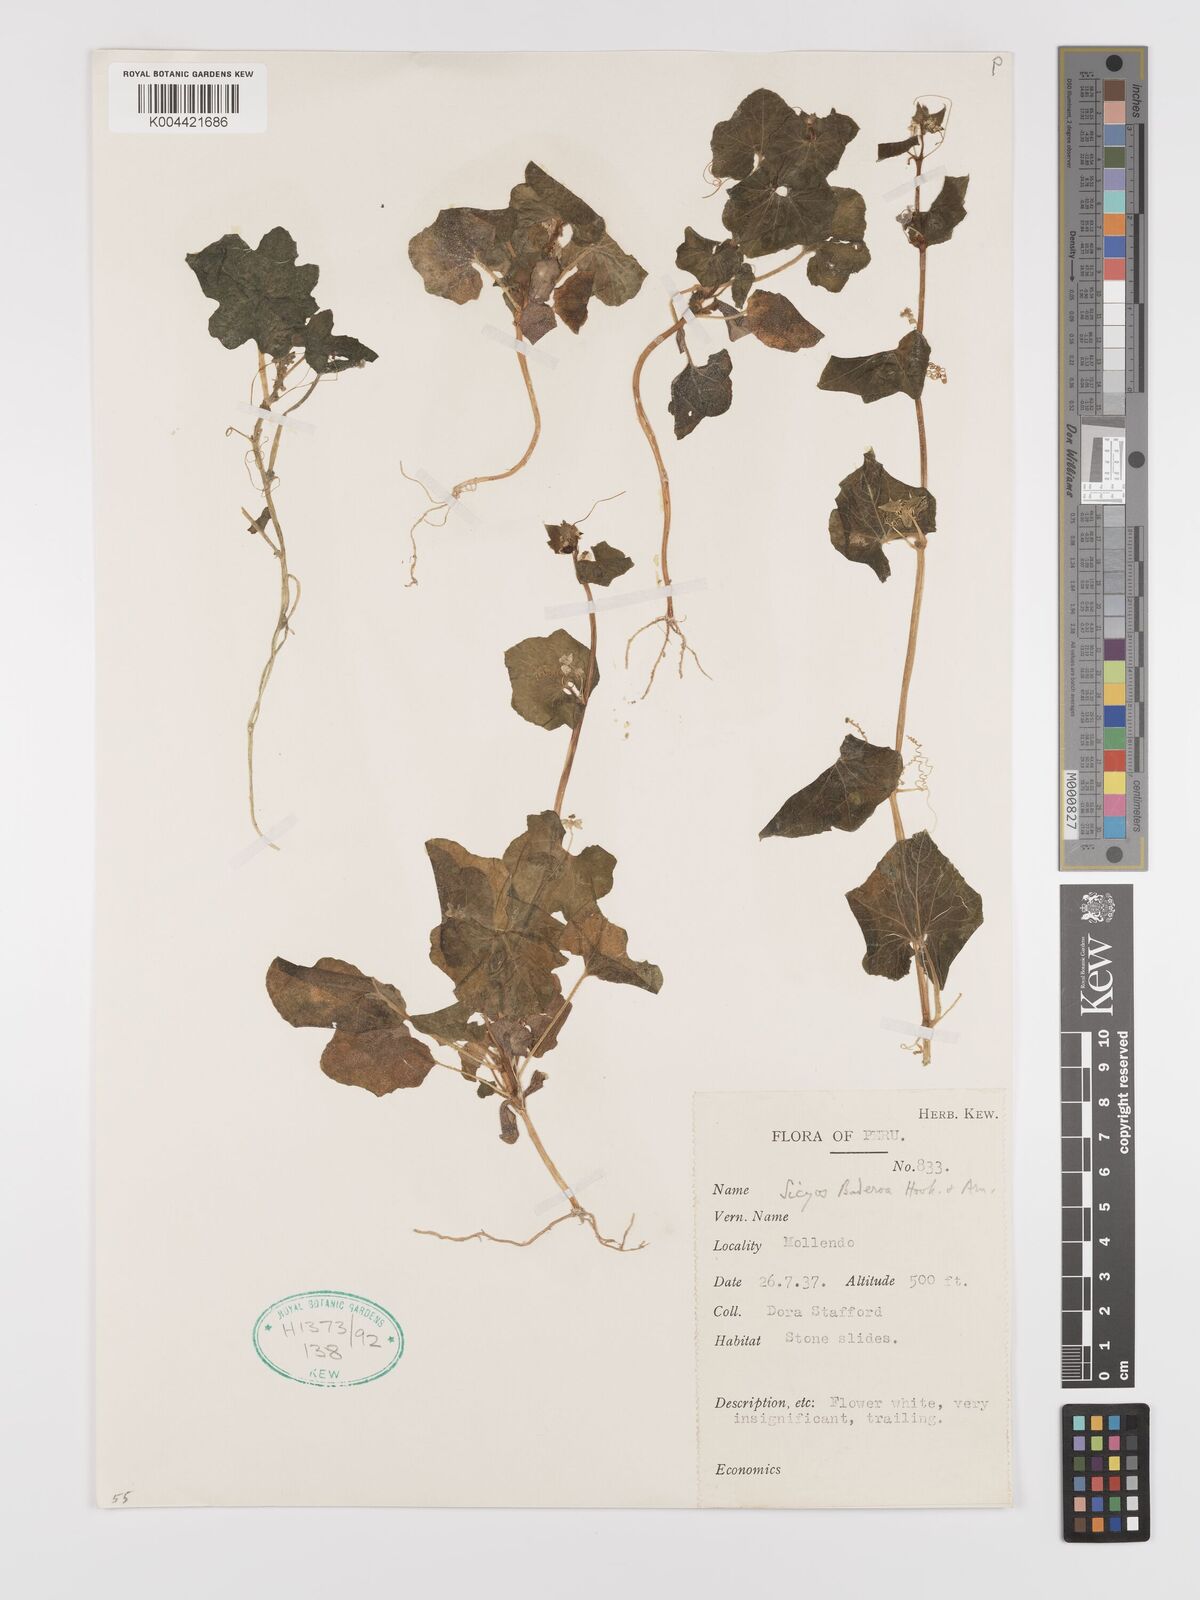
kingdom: Plantae
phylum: Tracheophyta
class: Magnoliopsida
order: Cucurbitales
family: Cucurbitaceae
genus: Sicyos
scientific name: Sicyos baderoa
